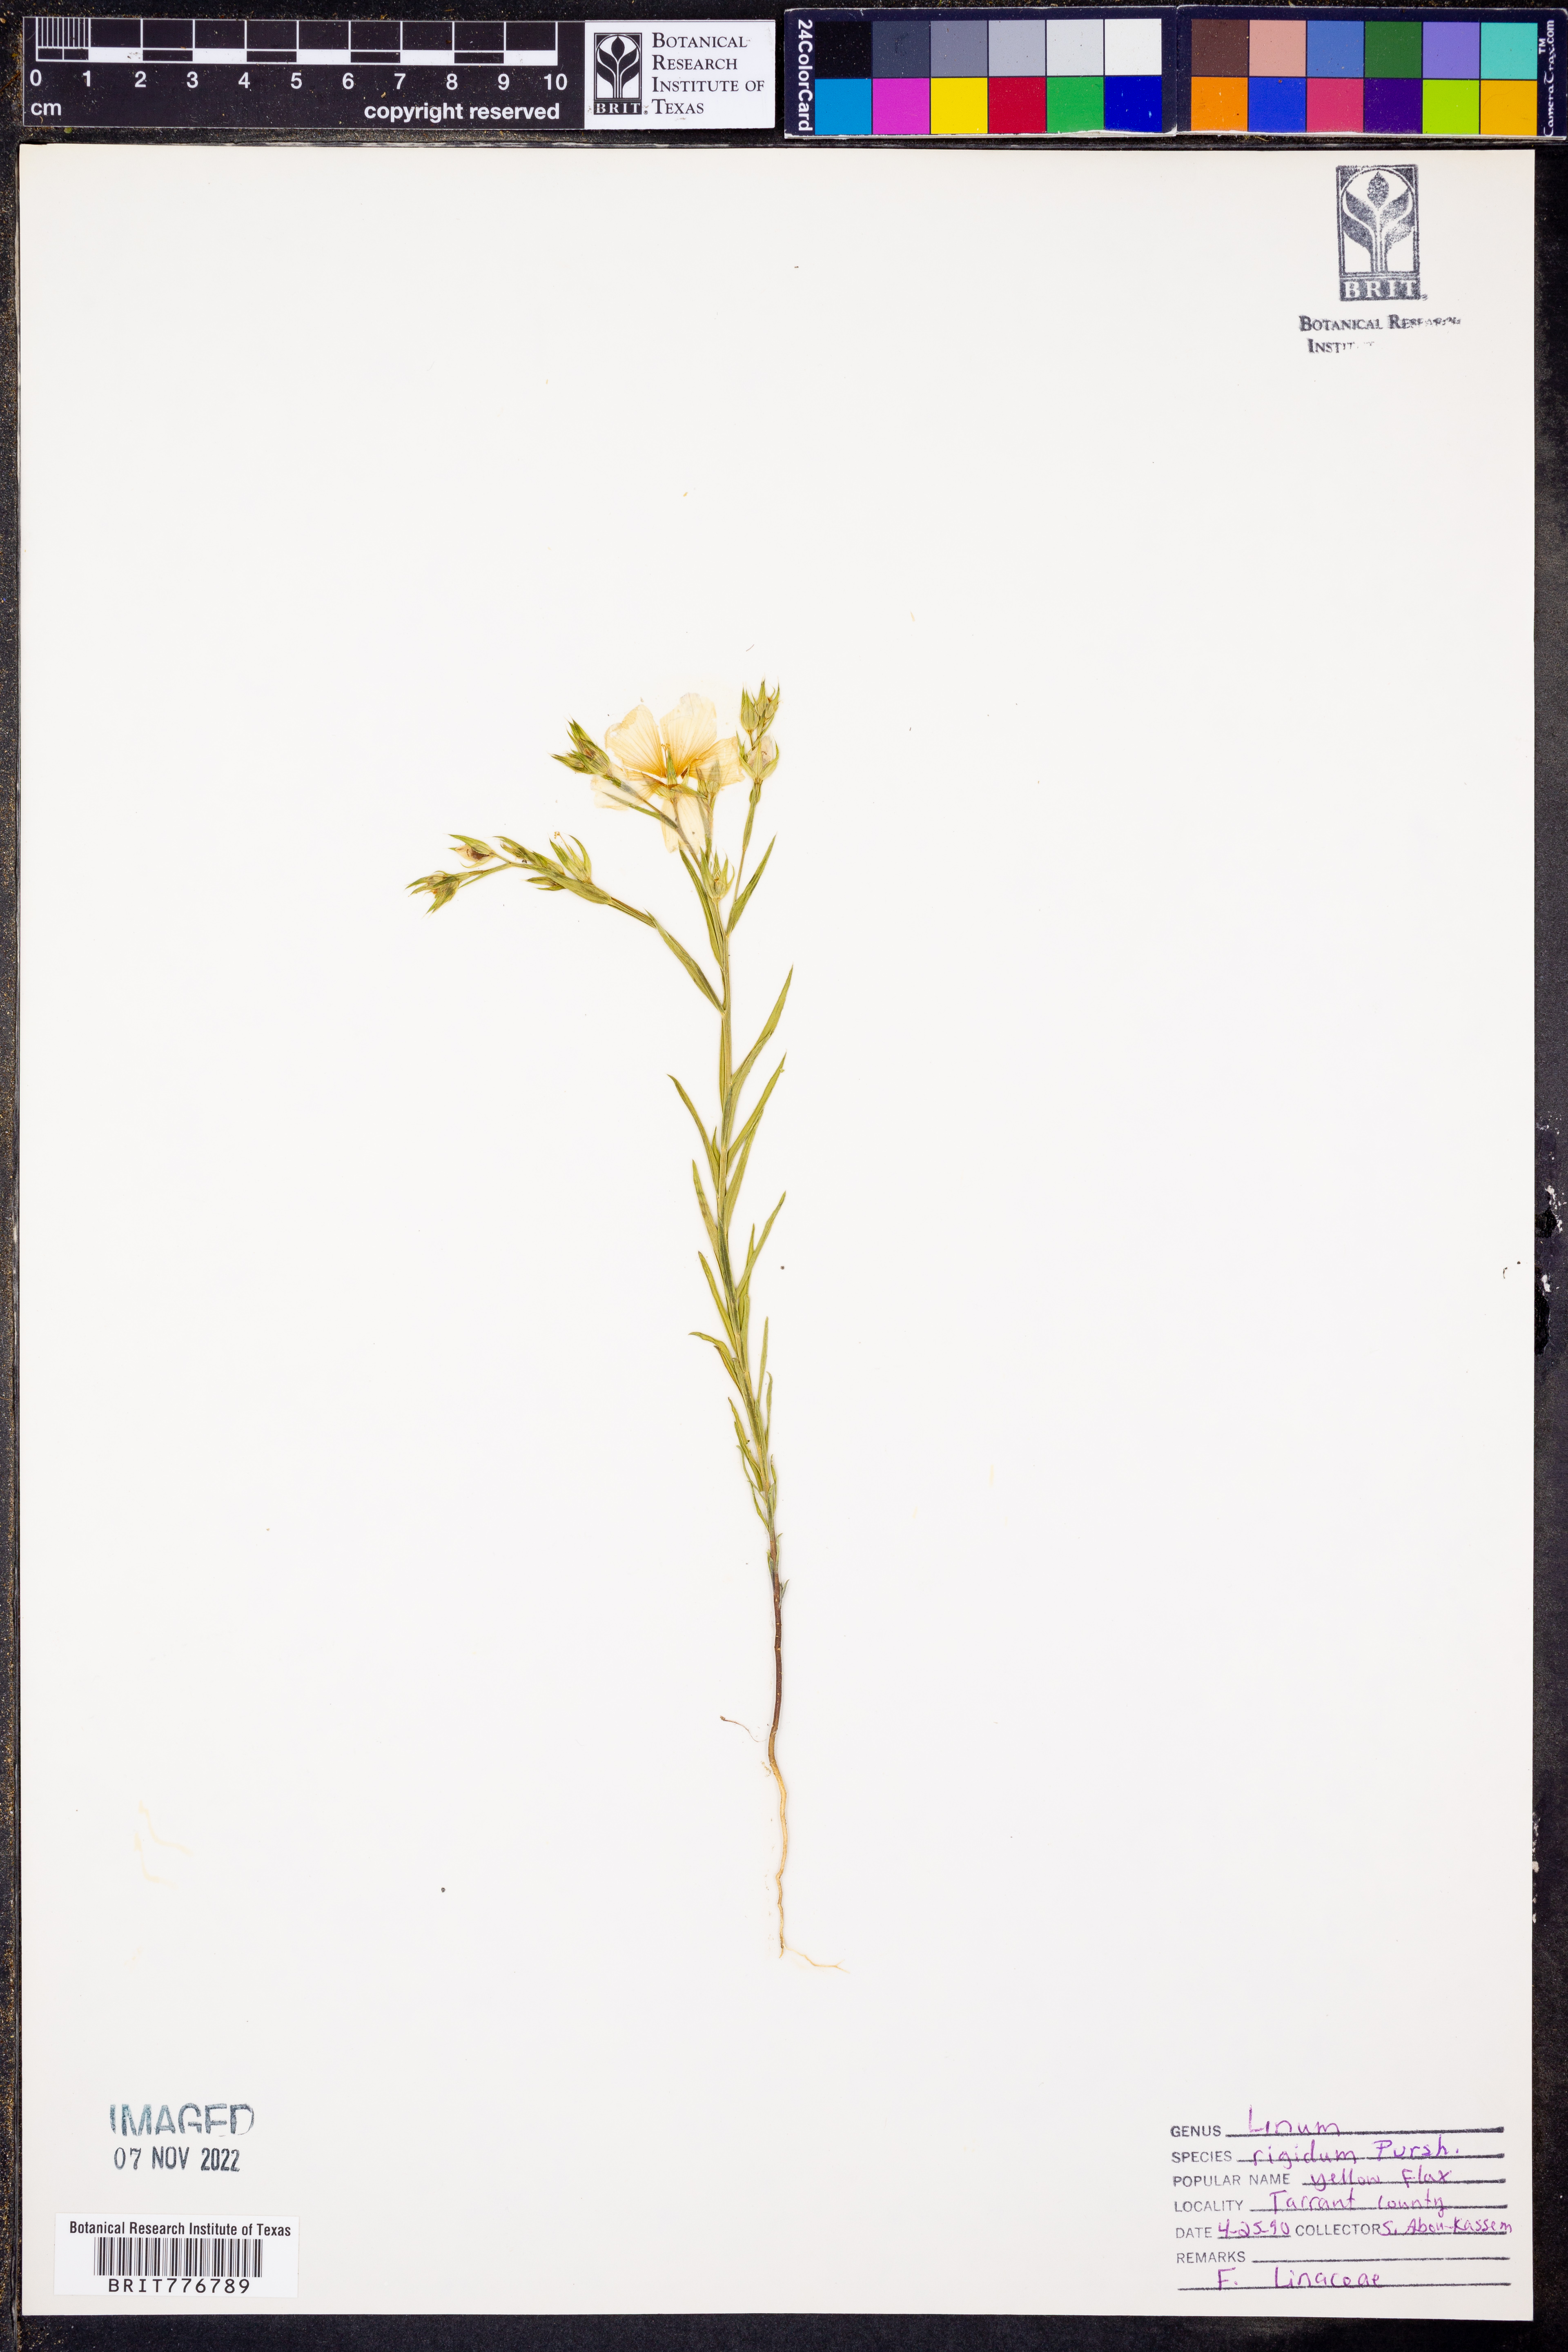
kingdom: Plantae
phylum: Tracheophyta
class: Magnoliopsida
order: Malpighiales
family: Linaceae
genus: Linum
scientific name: Linum rigidum
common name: Stiff-stem flax
